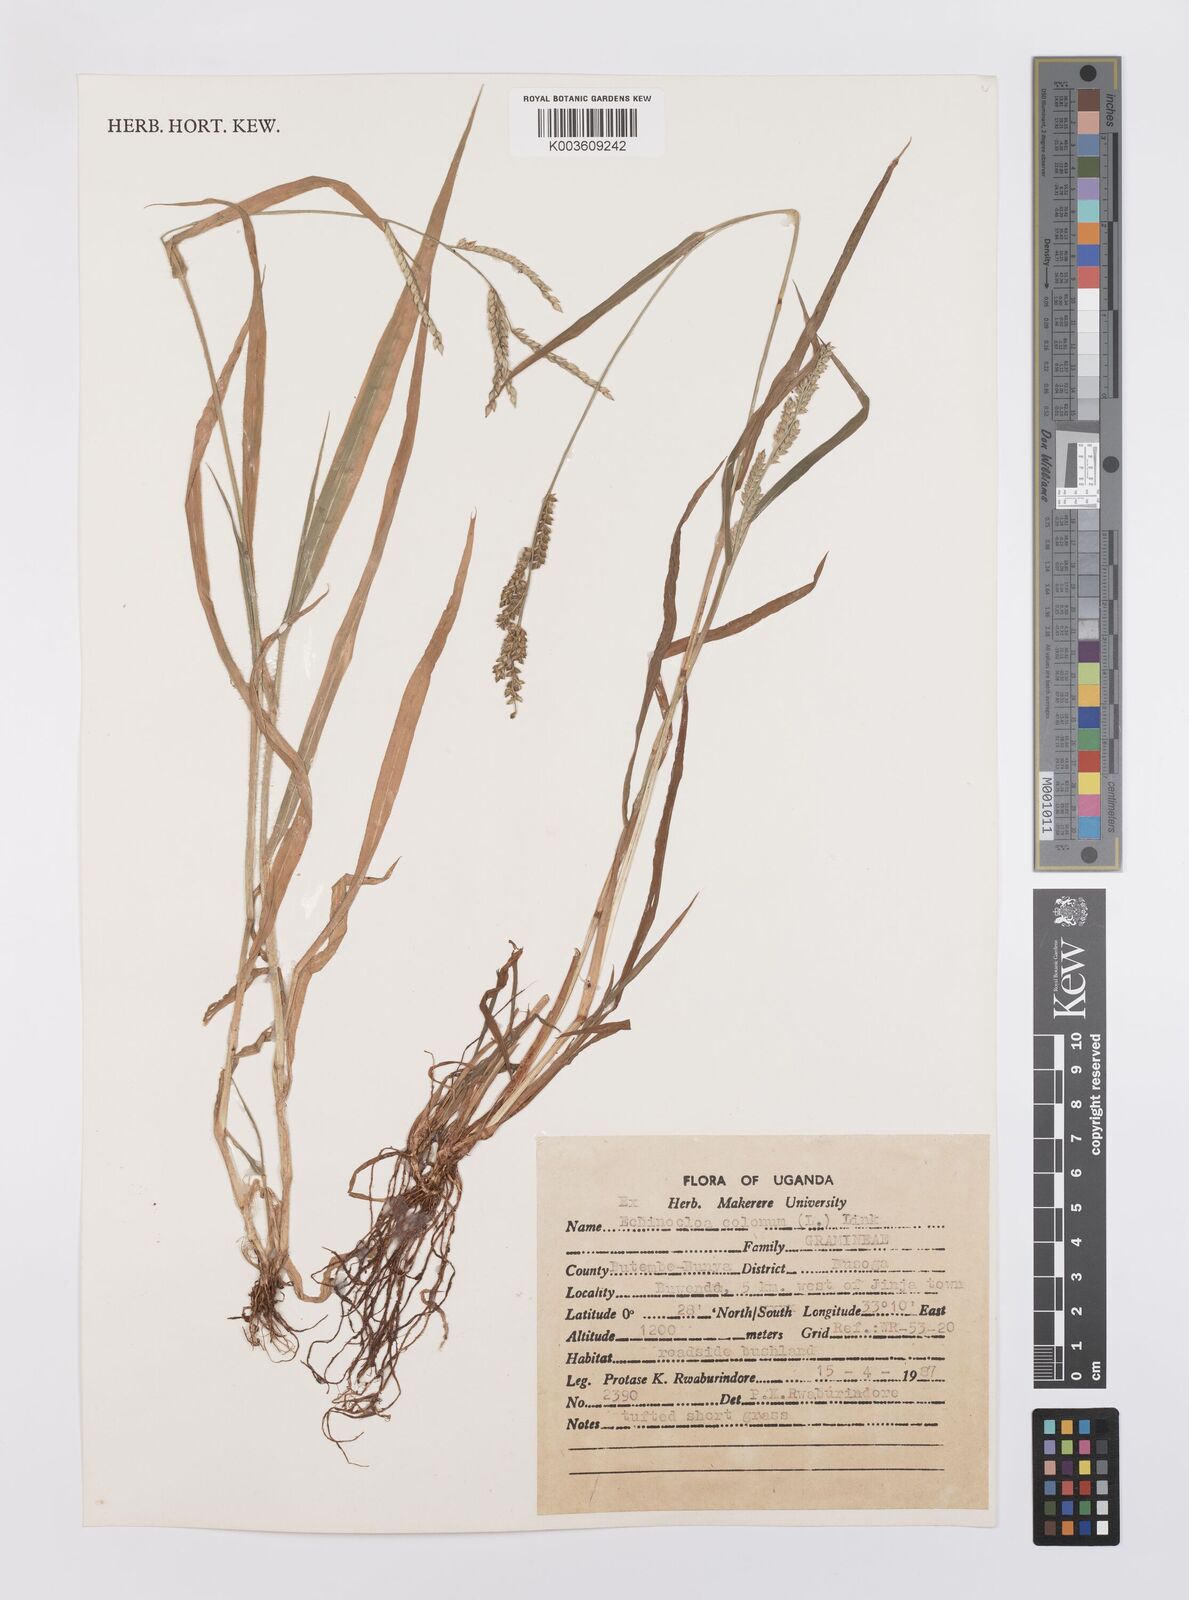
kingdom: Plantae
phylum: Tracheophyta
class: Liliopsida
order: Poales
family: Poaceae
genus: Echinochloa
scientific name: Echinochloa colonum
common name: Jungle rice
